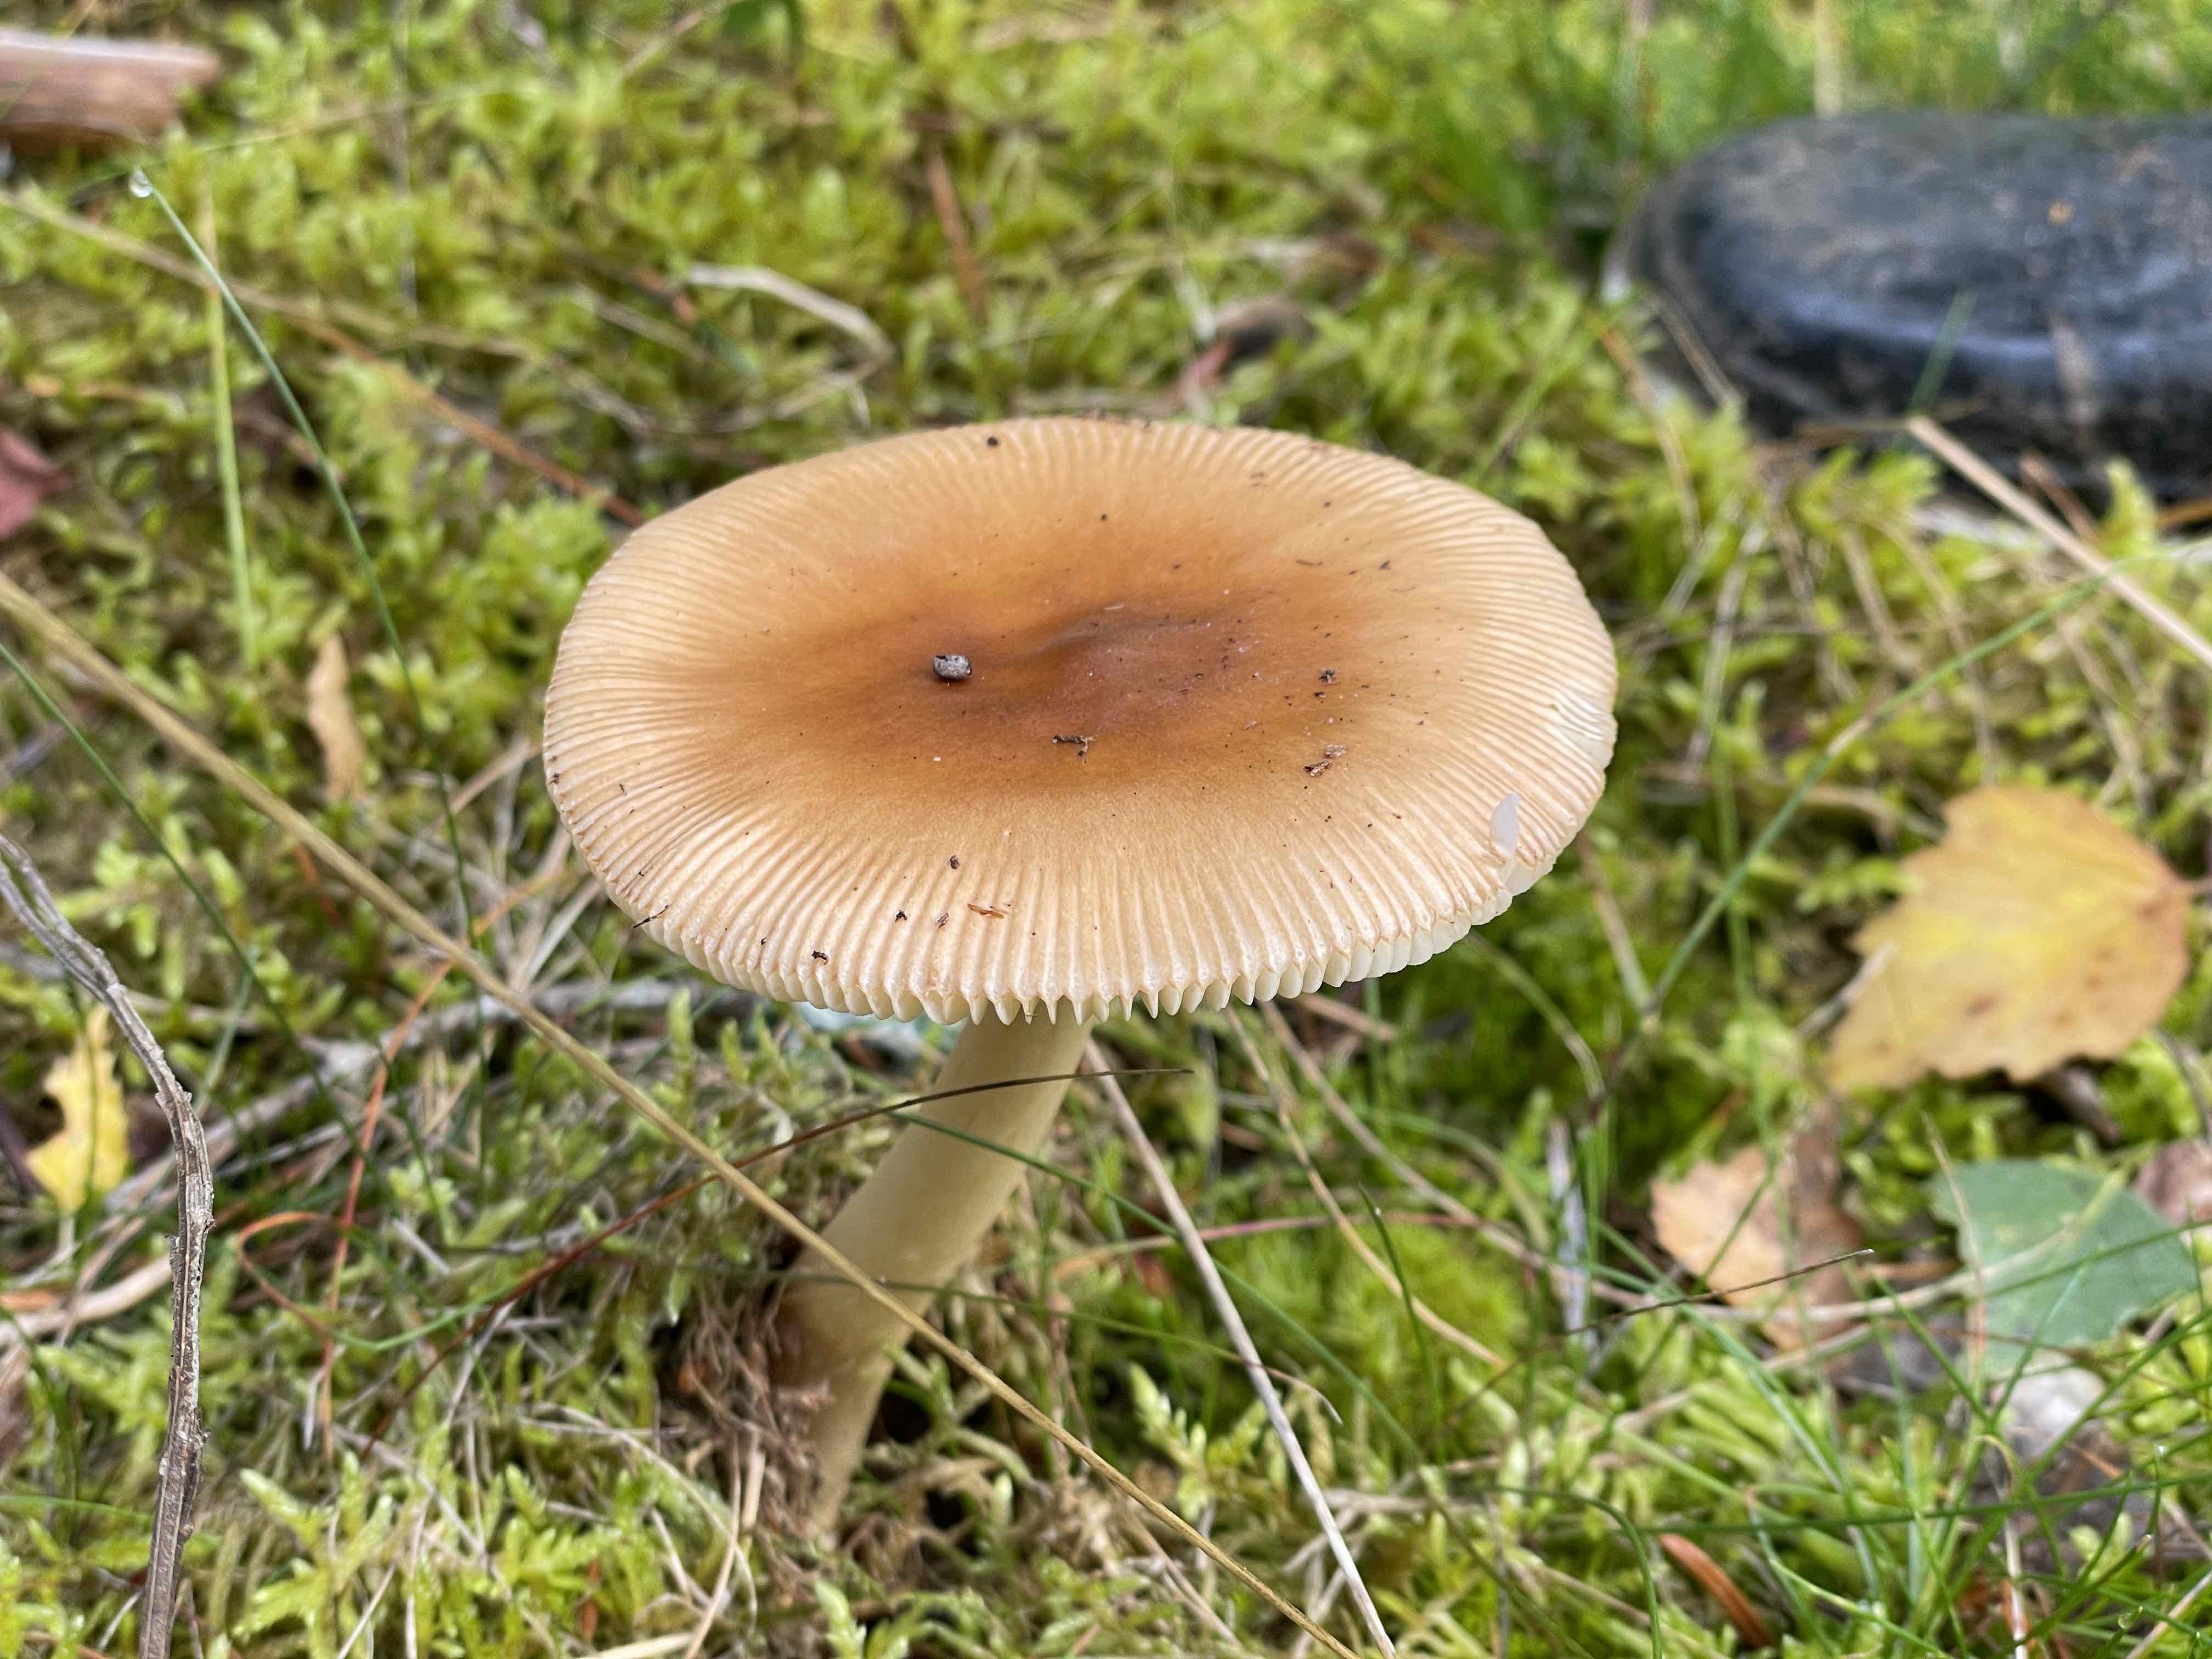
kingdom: Fungi
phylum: Basidiomycota
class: Agaricomycetes
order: Agaricales
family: Amanitaceae
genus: Amanita
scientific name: Amanita fulva
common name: brun kam-fluesvamp
